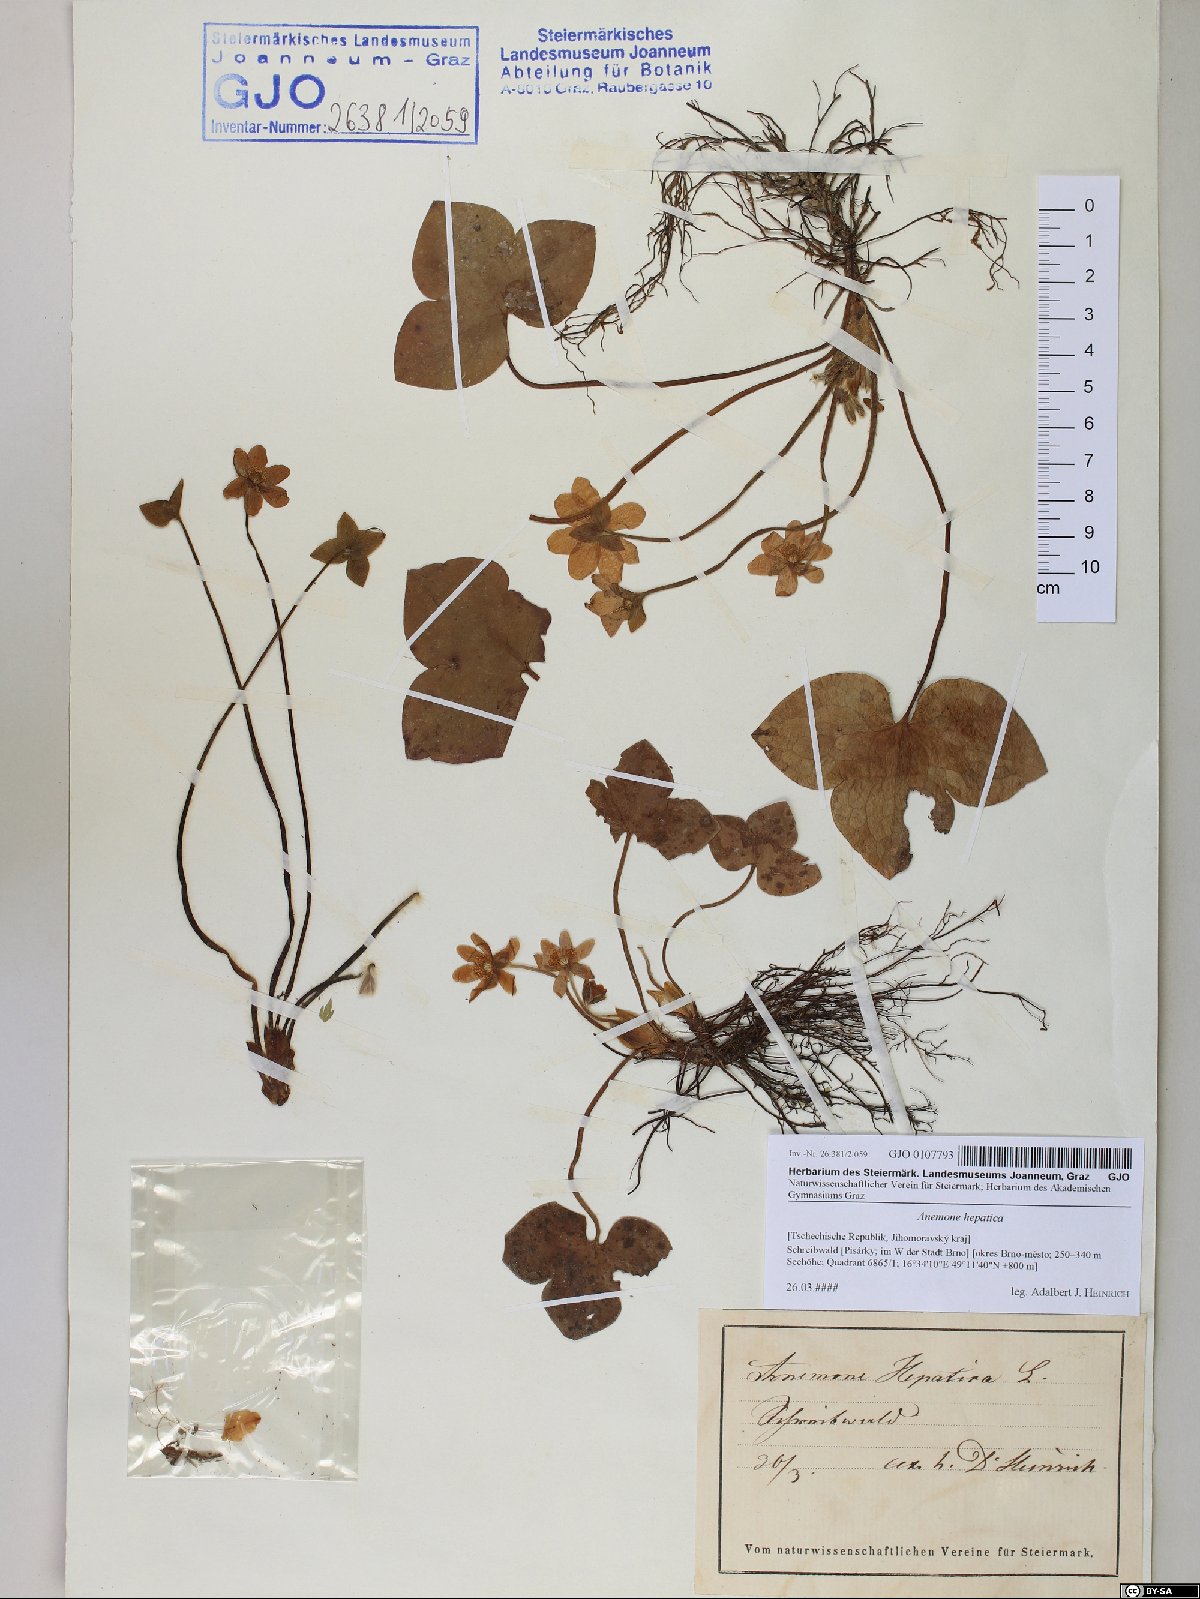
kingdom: Plantae
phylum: Tracheophyta
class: Magnoliopsida
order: Ranunculales
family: Ranunculaceae
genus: Hepatica
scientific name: Hepatica nobilis
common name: Liverleaf
